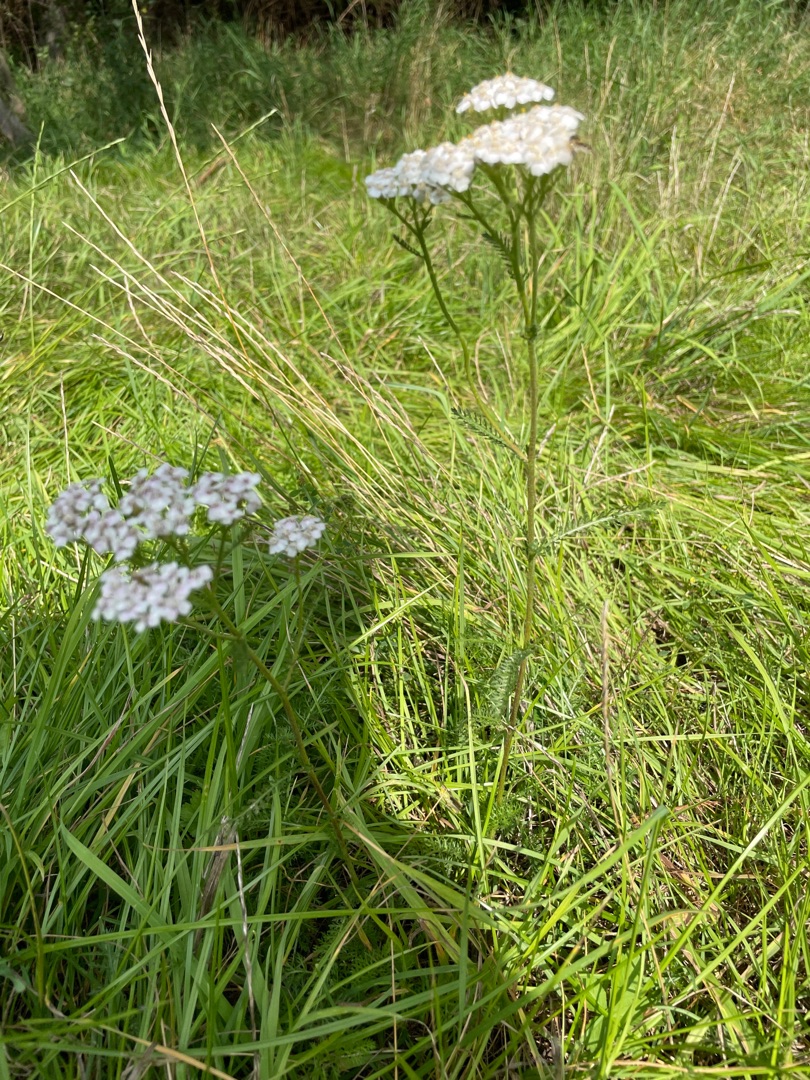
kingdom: Plantae
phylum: Tracheophyta
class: Magnoliopsida
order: Asterales
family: Asteraceae
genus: Achillea
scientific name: Achillea millefolium
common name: Almindelig røllike
